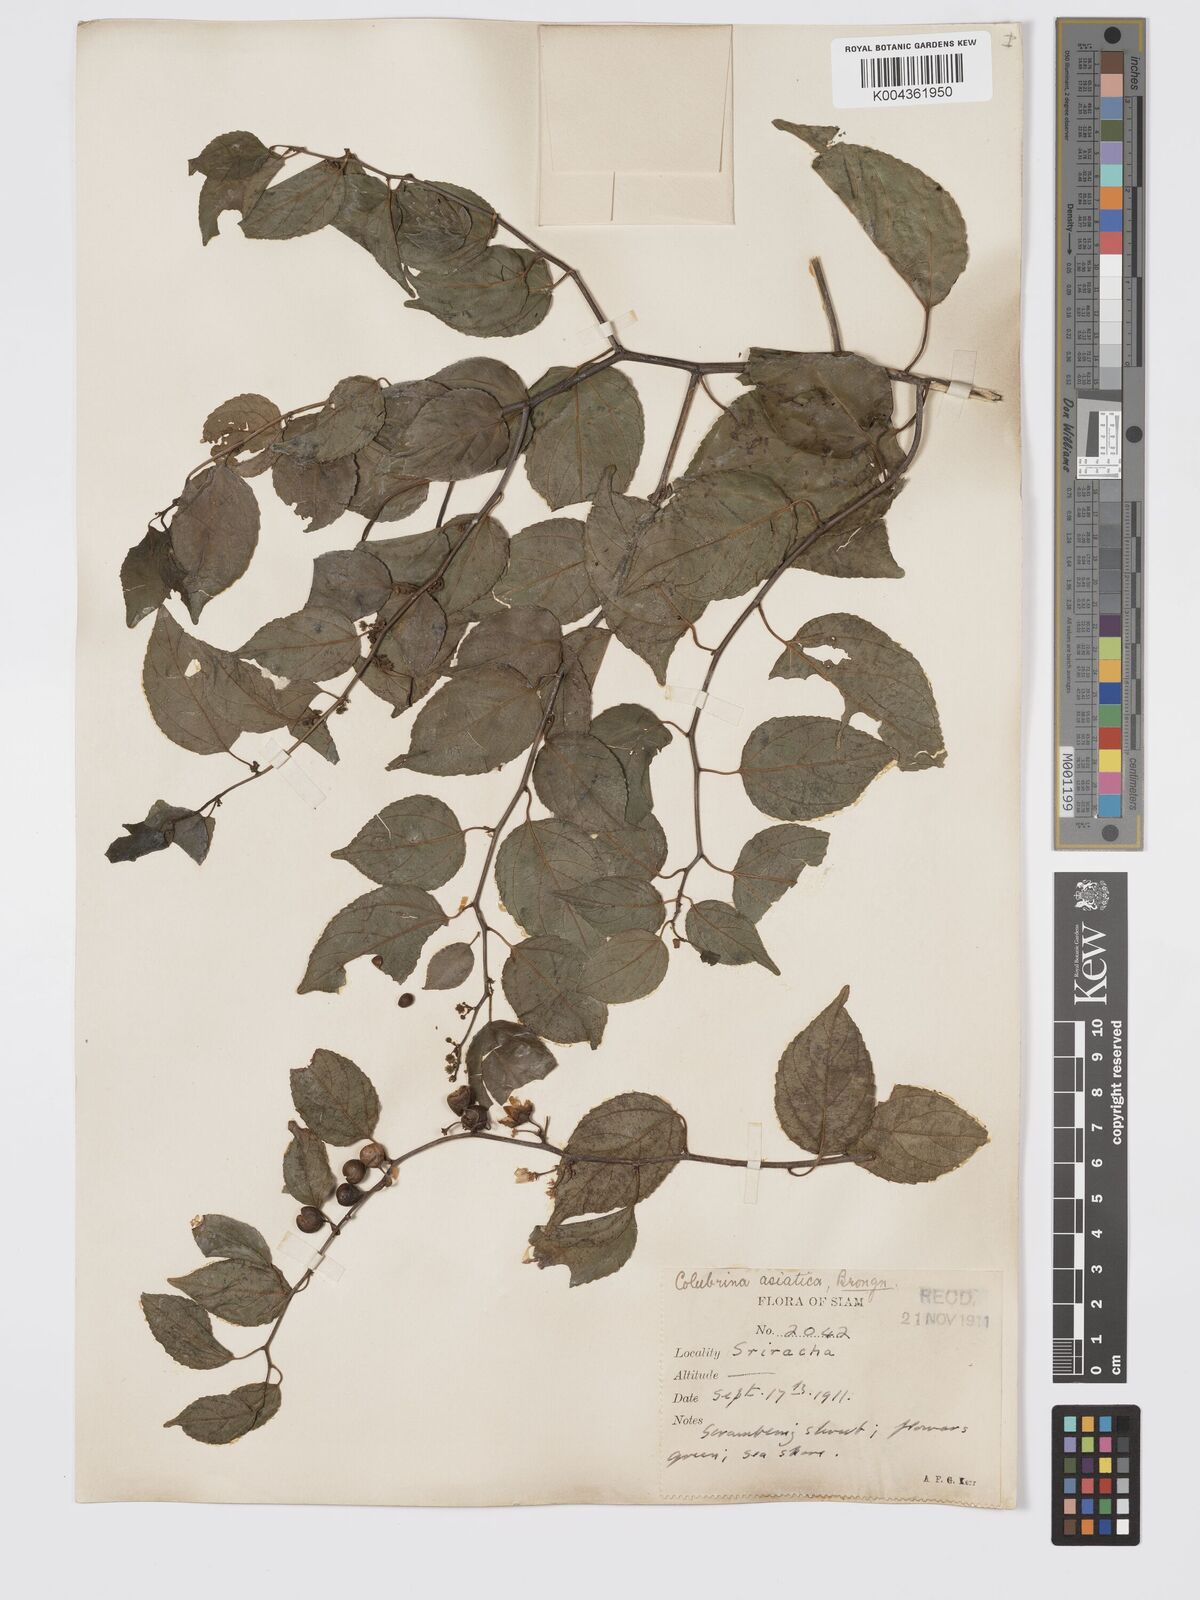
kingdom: Plantae
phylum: Tracheophyta
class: Magnoliopsida
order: Rosales
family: Rhamnaceae
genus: Colubrina
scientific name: Colubrina asiatica
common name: Asian nakedwood
